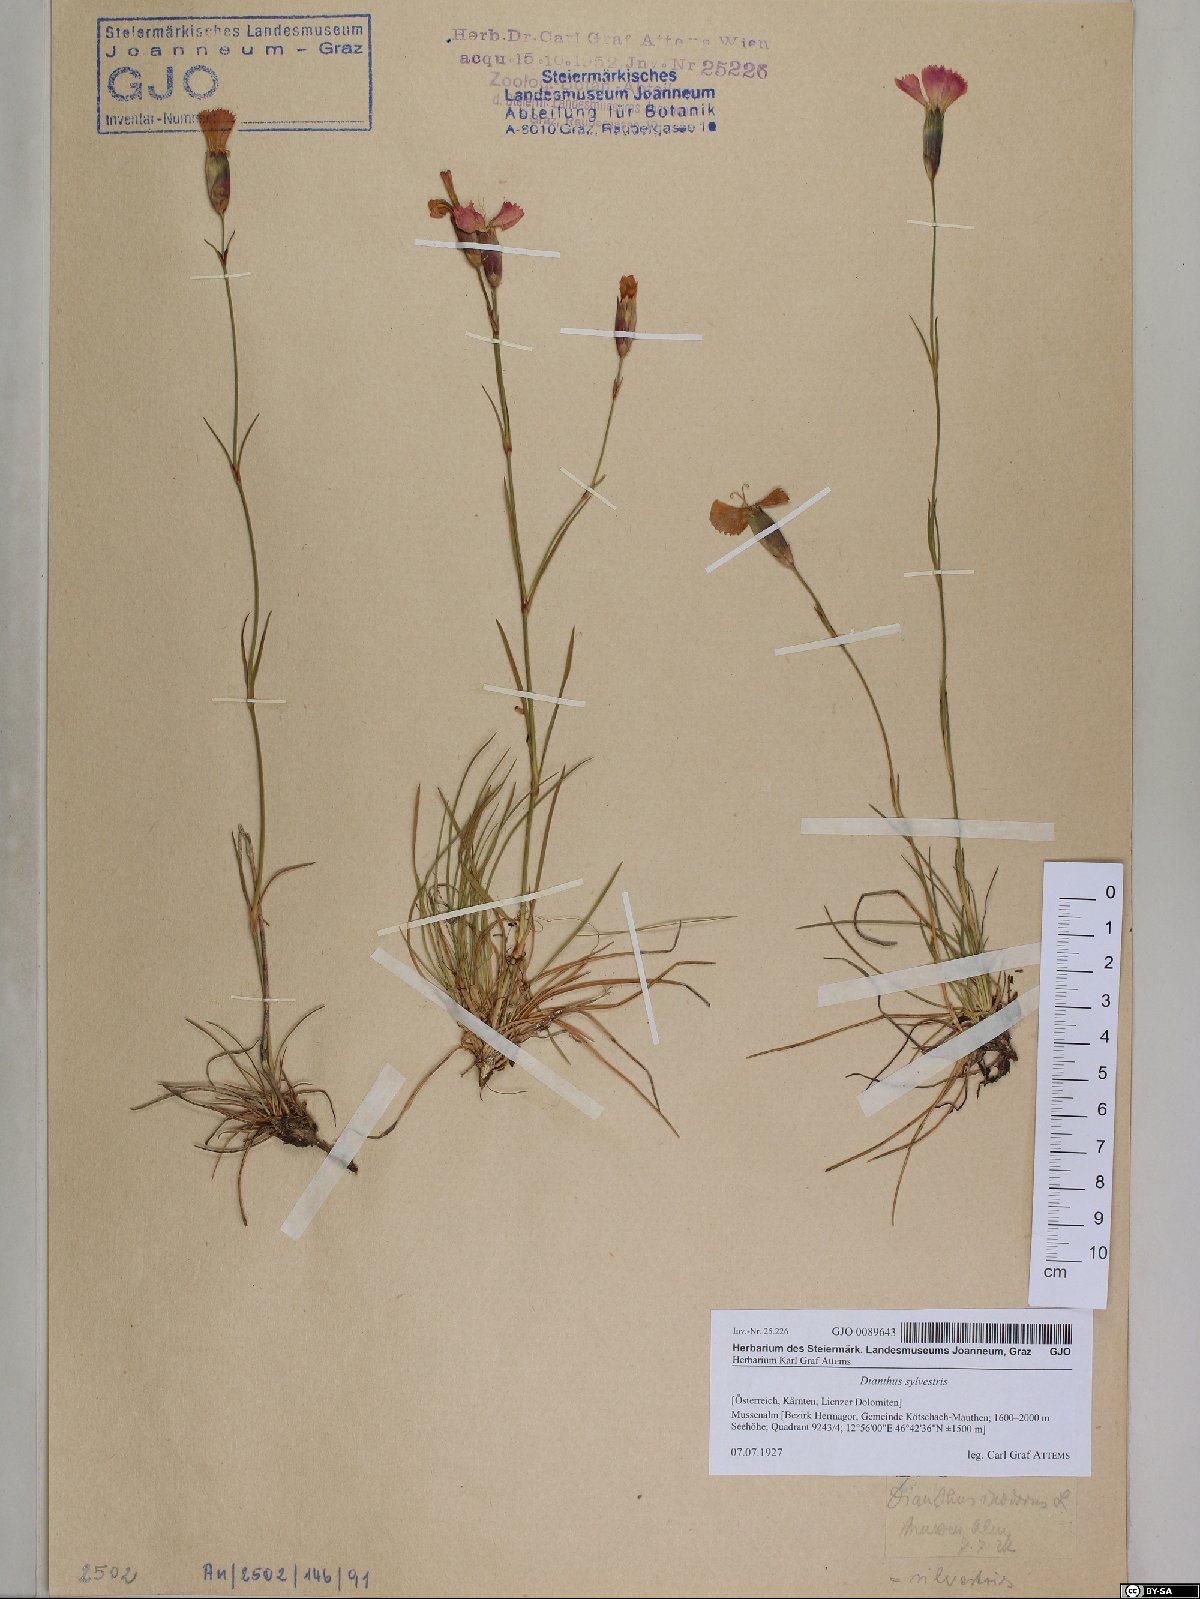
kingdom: Plantae
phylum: Tracheophyta
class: Magnoliopsida
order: Caryophyllales
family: Caryophyllaceae
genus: Dianthus
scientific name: Dianthus sylvestris
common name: Wood pink
